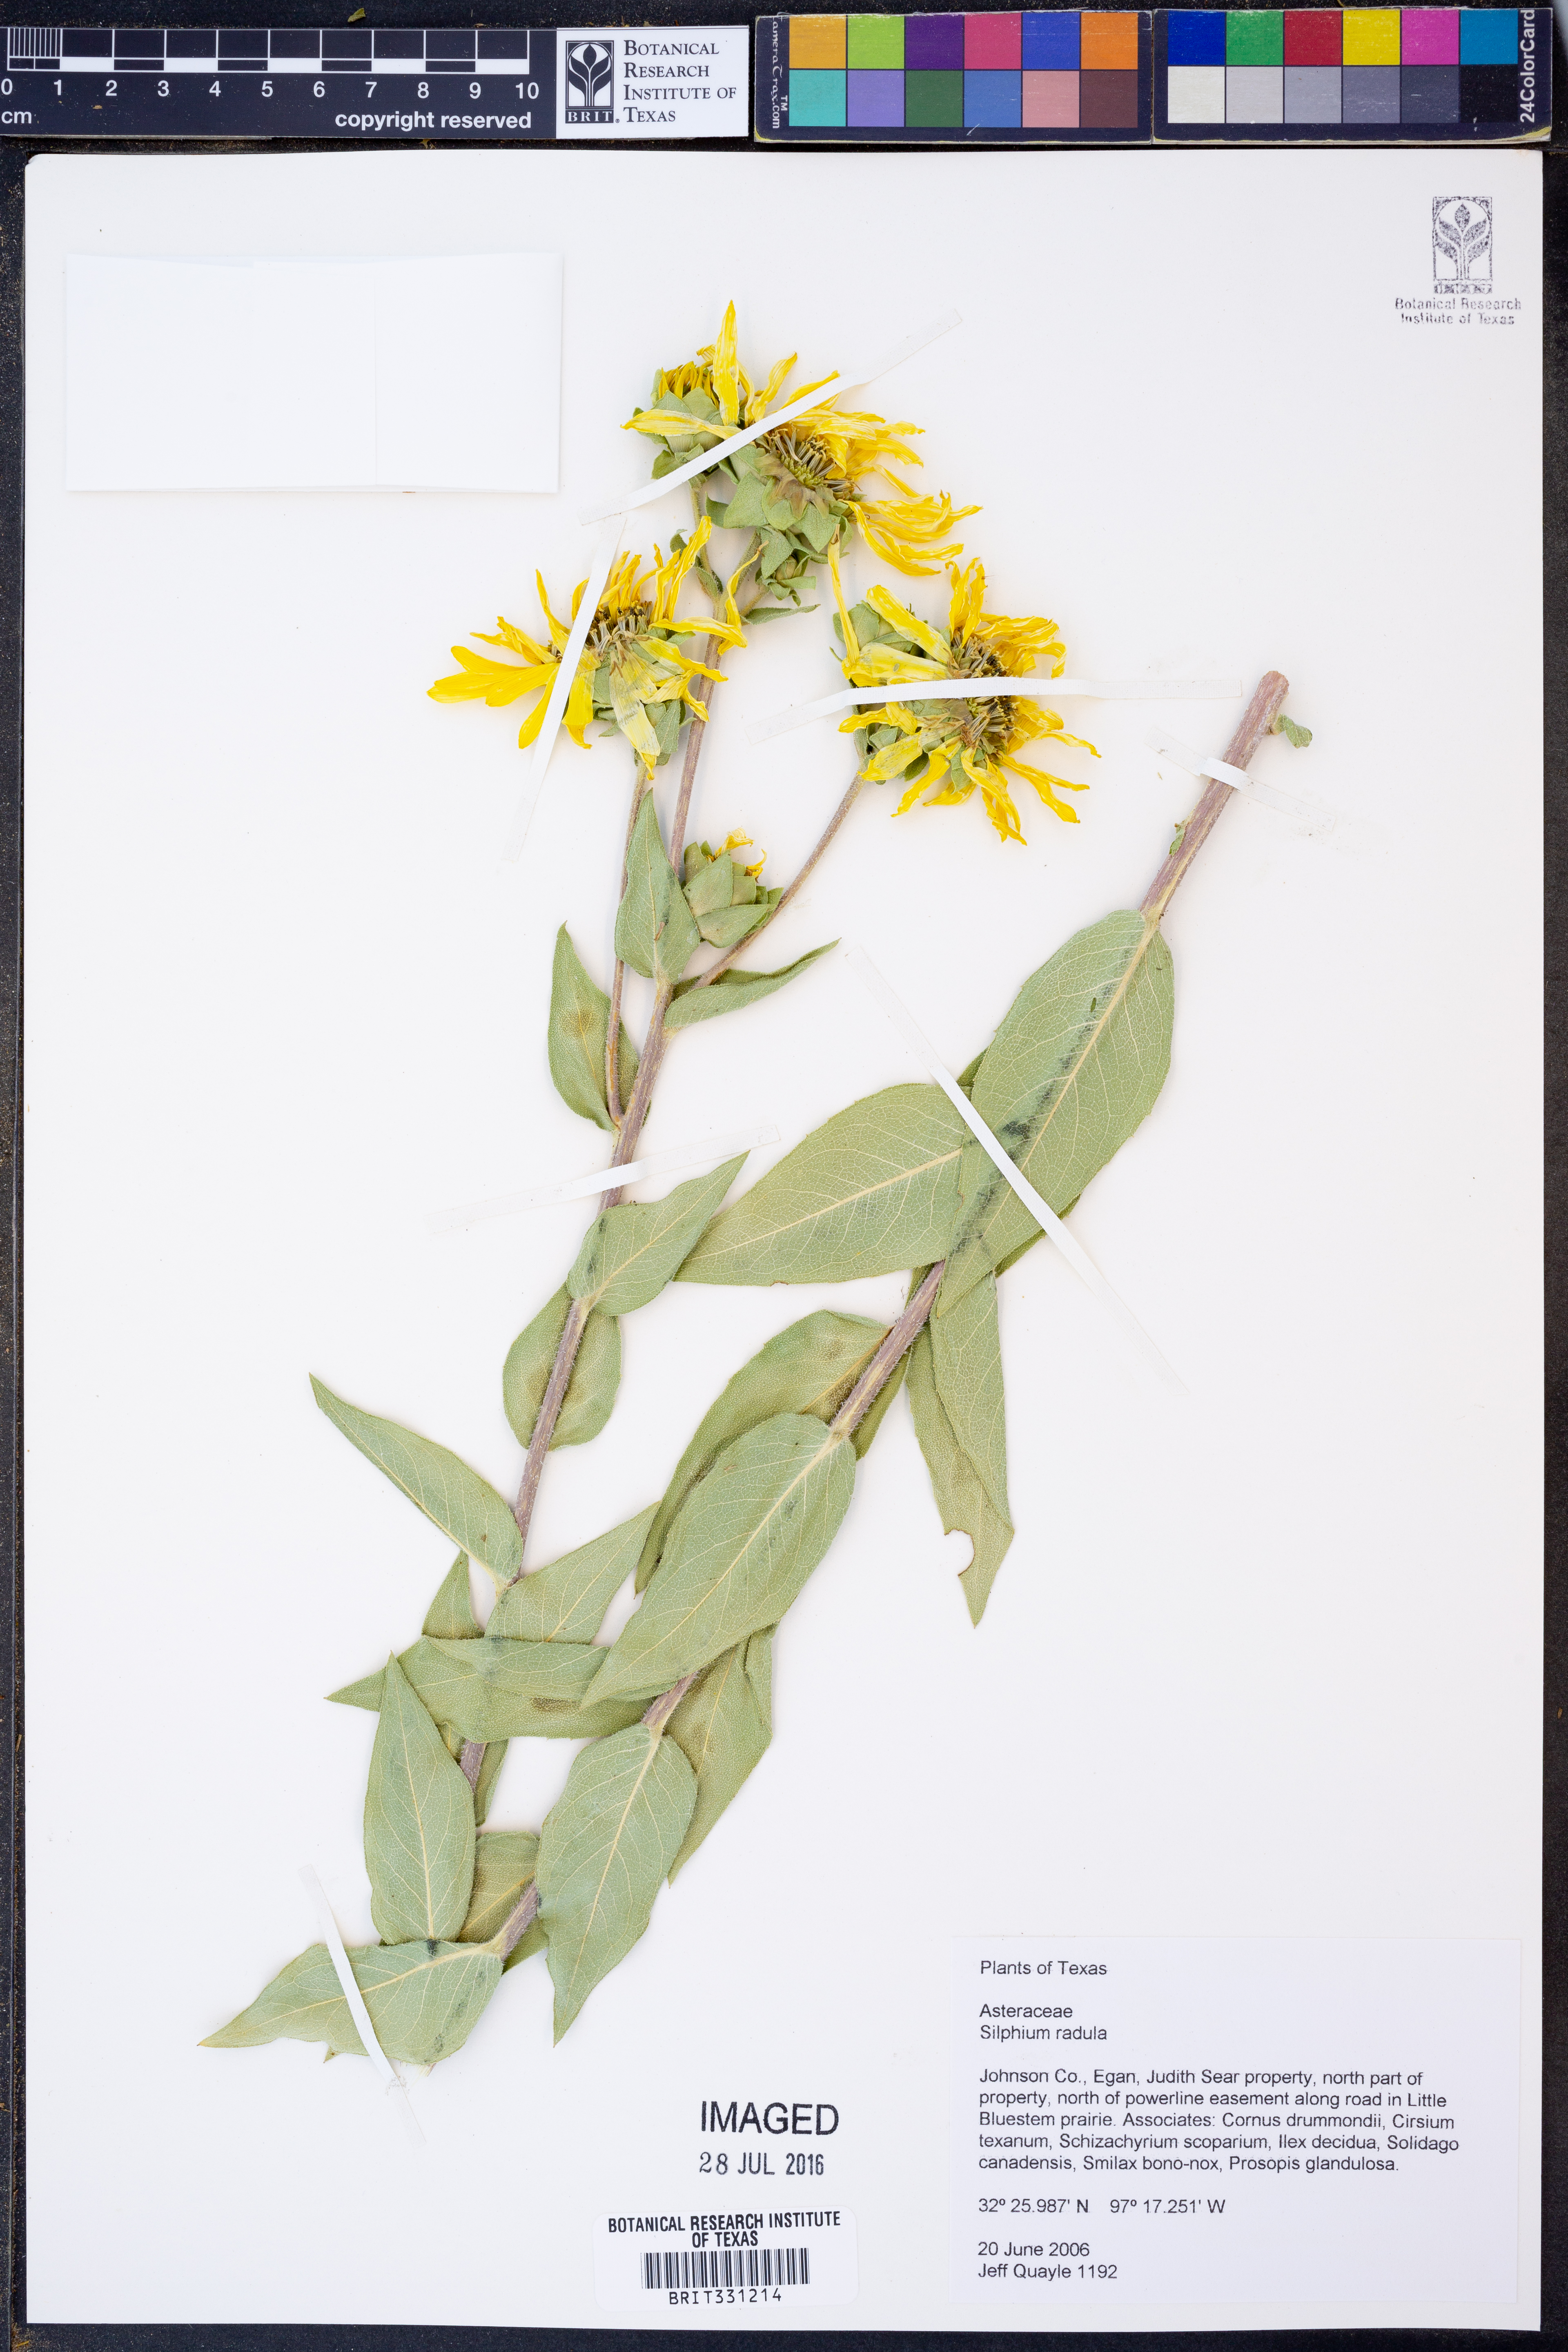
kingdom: Plantae
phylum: Tracheophyta
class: Magnoliopsida
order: Asterales
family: Asteraceae
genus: Silphium
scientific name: Silphium radula
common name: Roughleaf rosinweed
